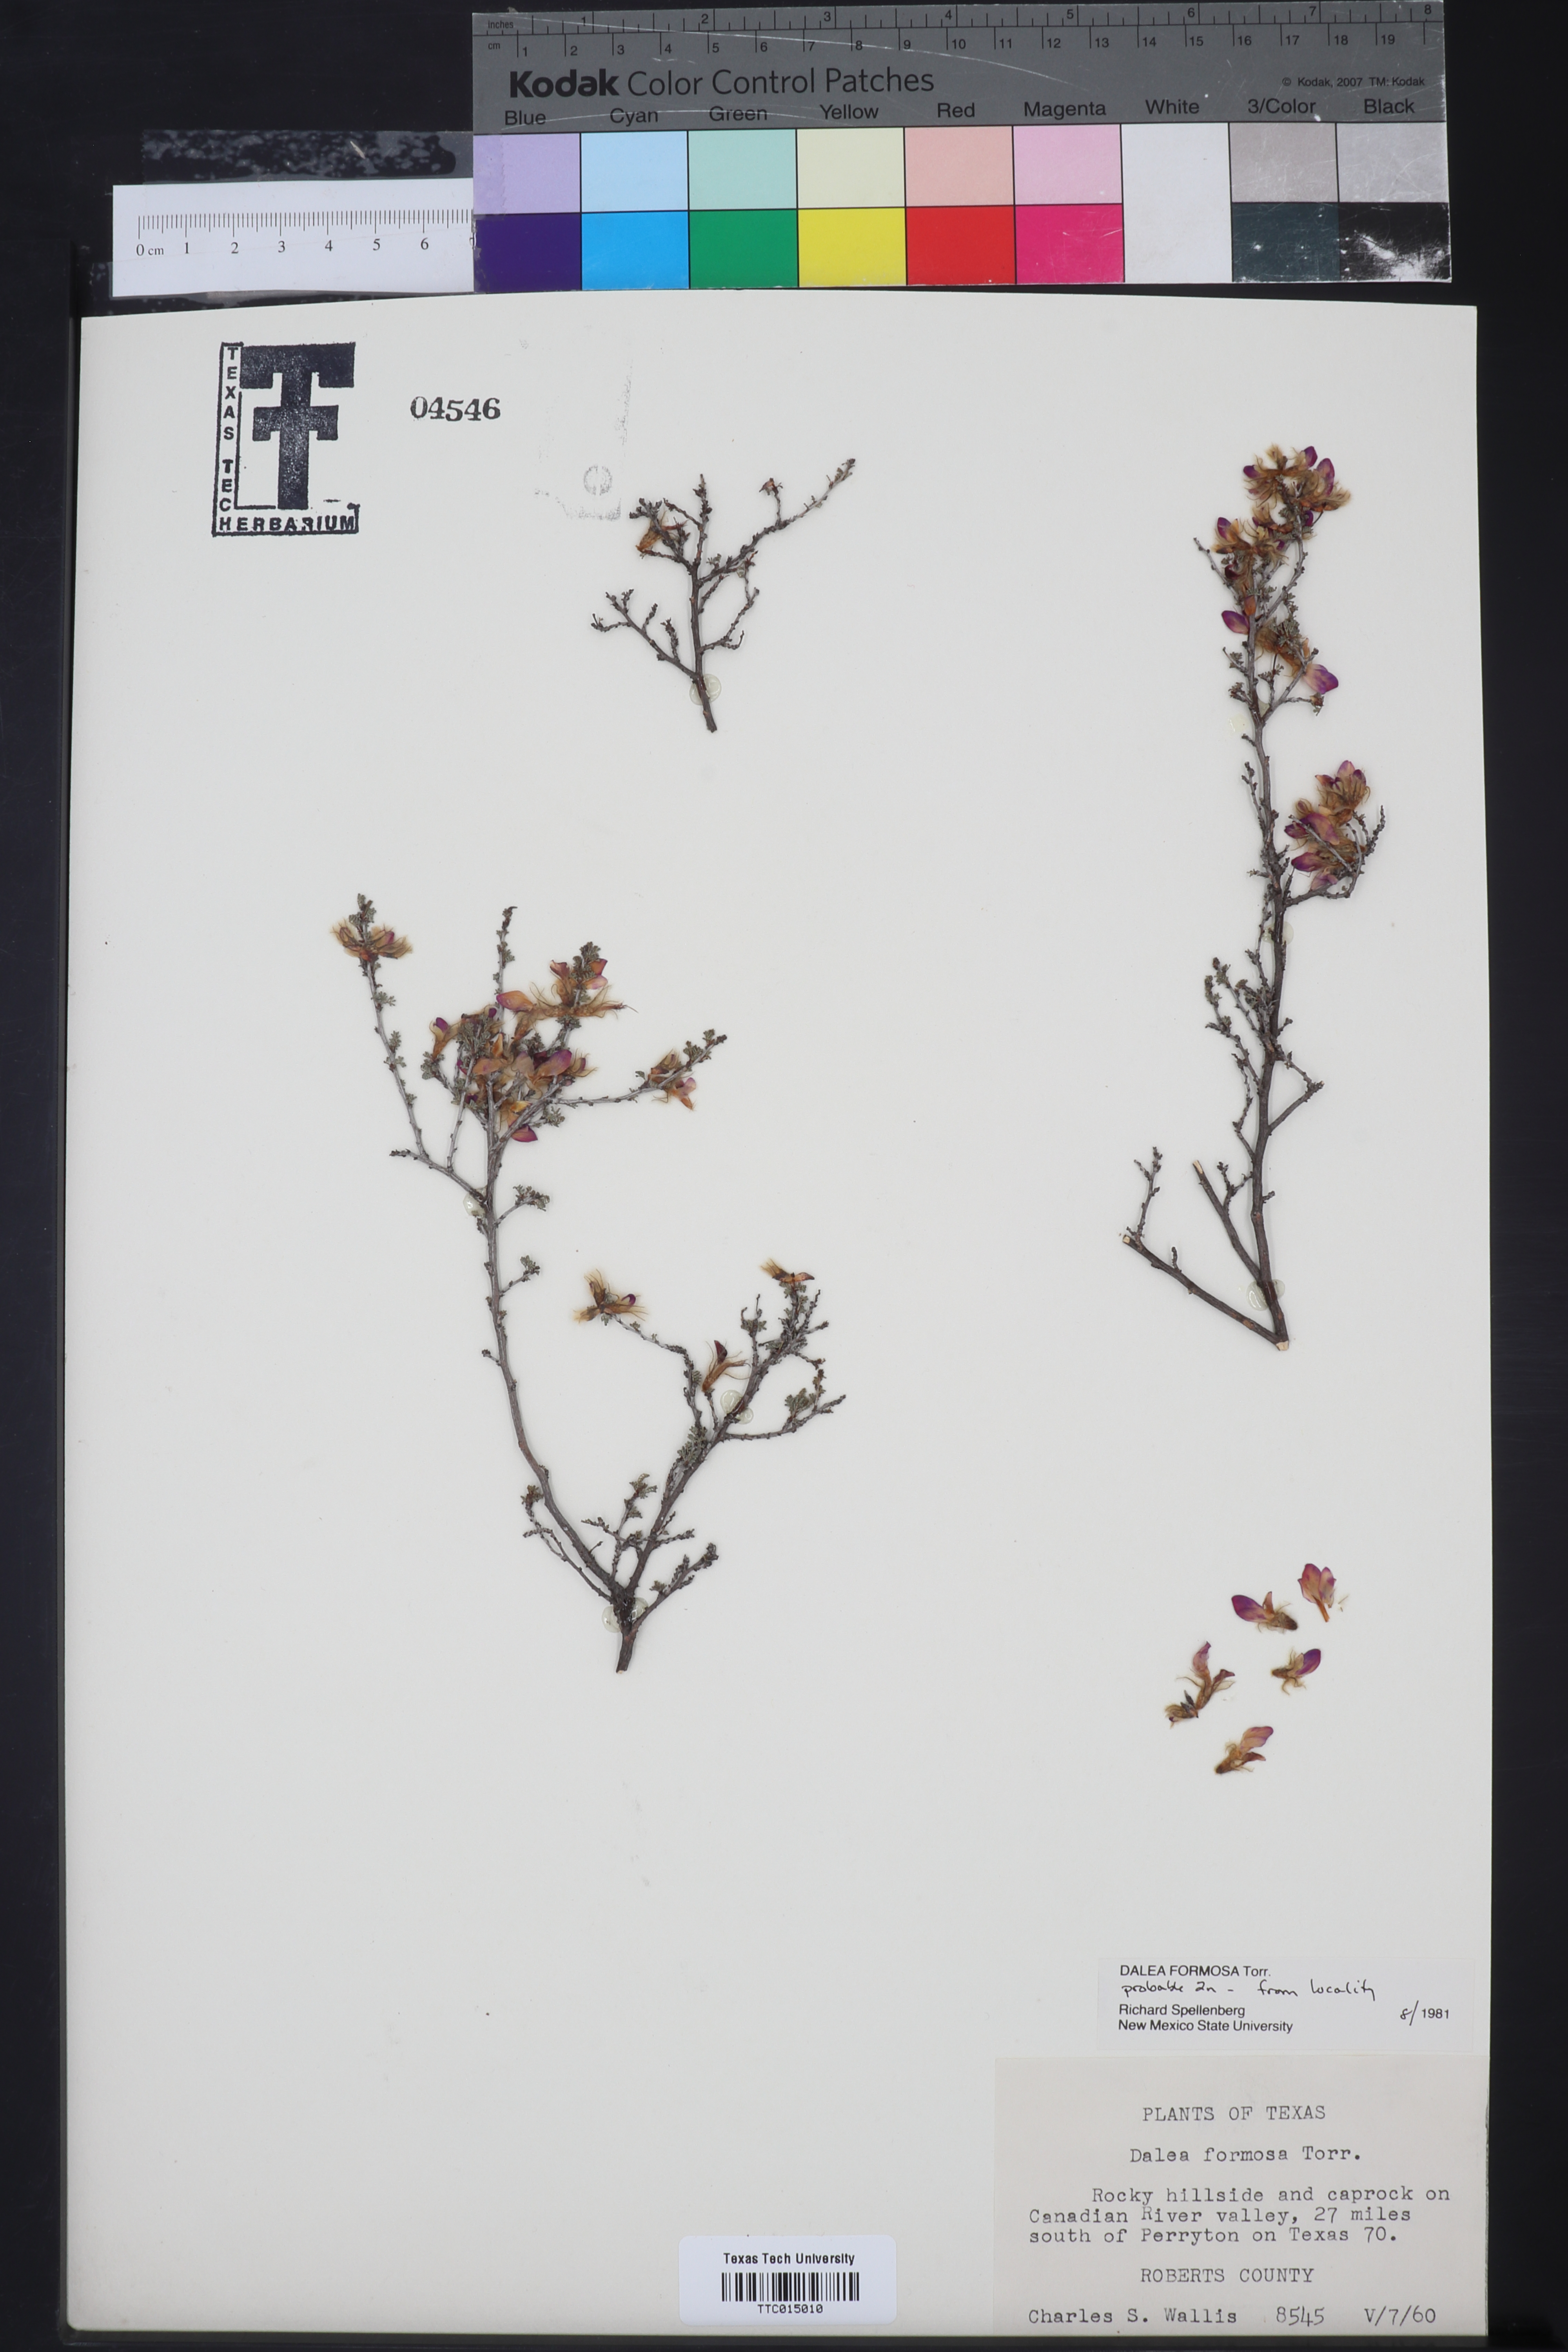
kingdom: Plantae
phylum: Tracheophyta
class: Magnoliopsida
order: Fabales
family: Fabaceae
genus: Dalea
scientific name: Dalea formosa
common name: Feather-plume dalea
